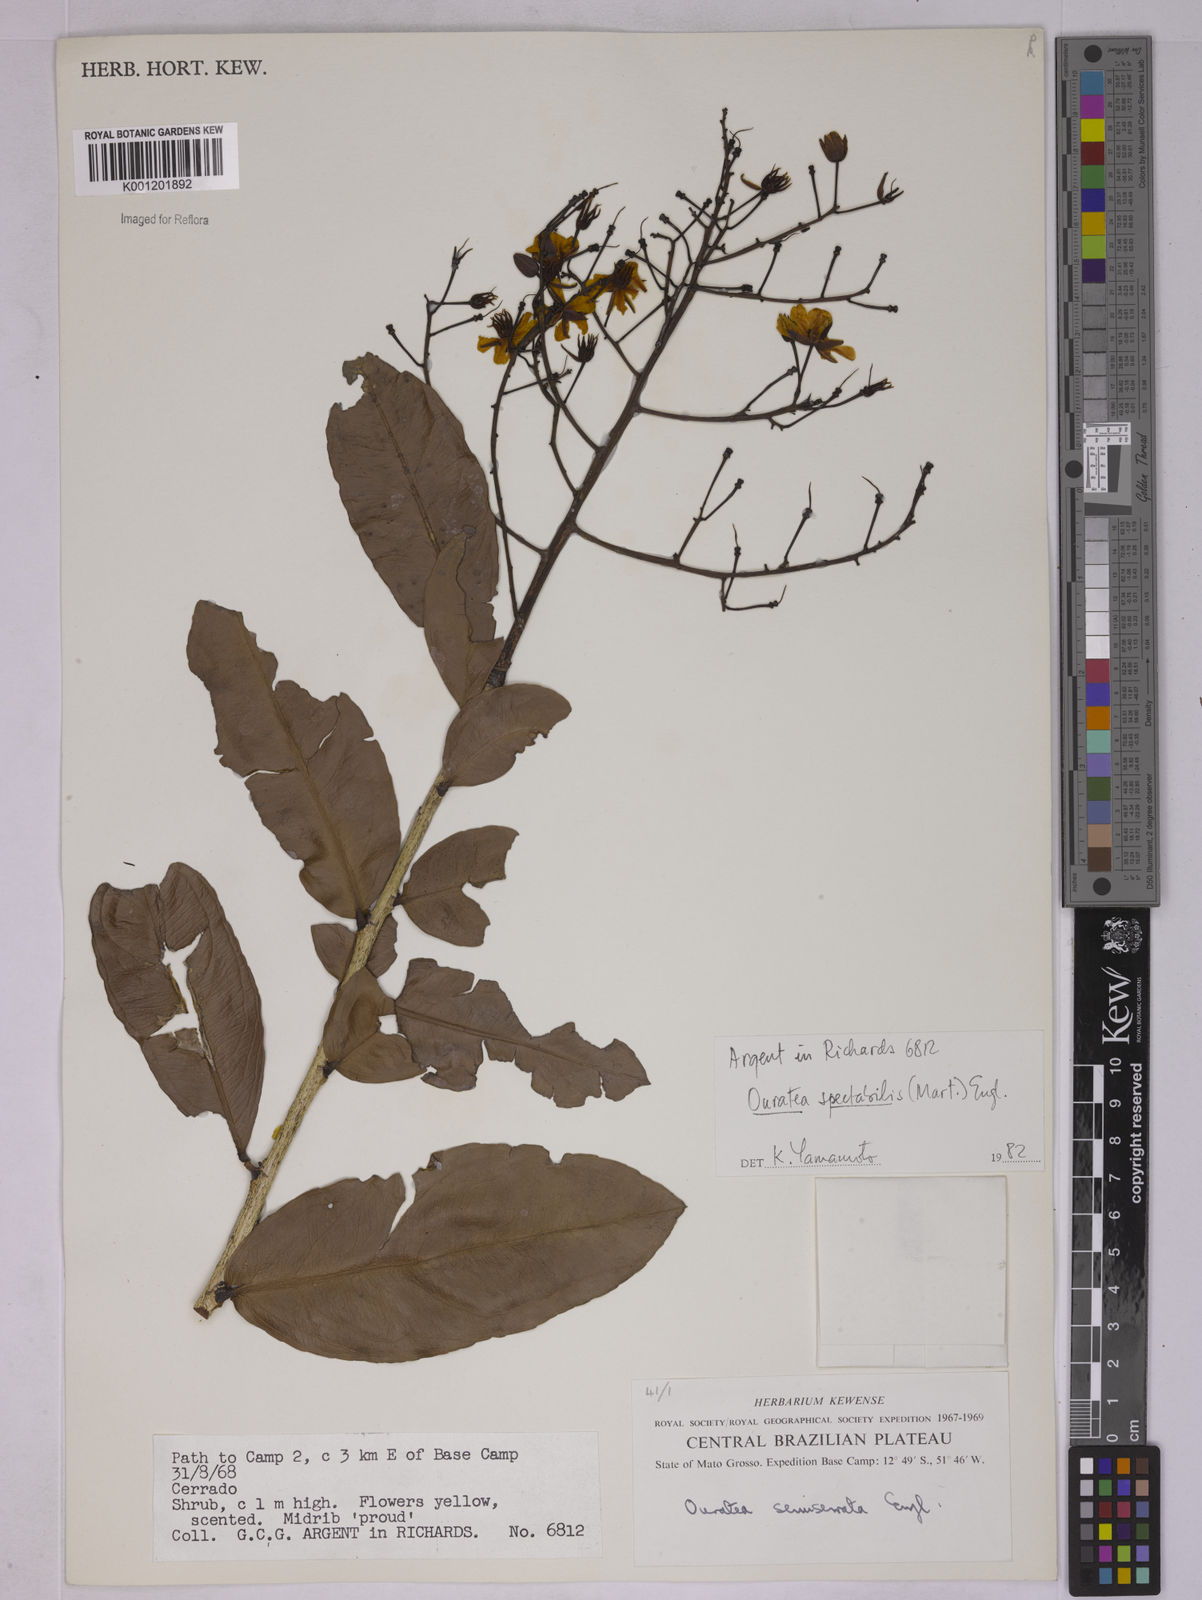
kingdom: Plantae
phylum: Tracheophyta
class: Magnoliopsida
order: Malpighiales
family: Ochnaceae
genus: Ouratea
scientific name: Ouratea spectabilis
